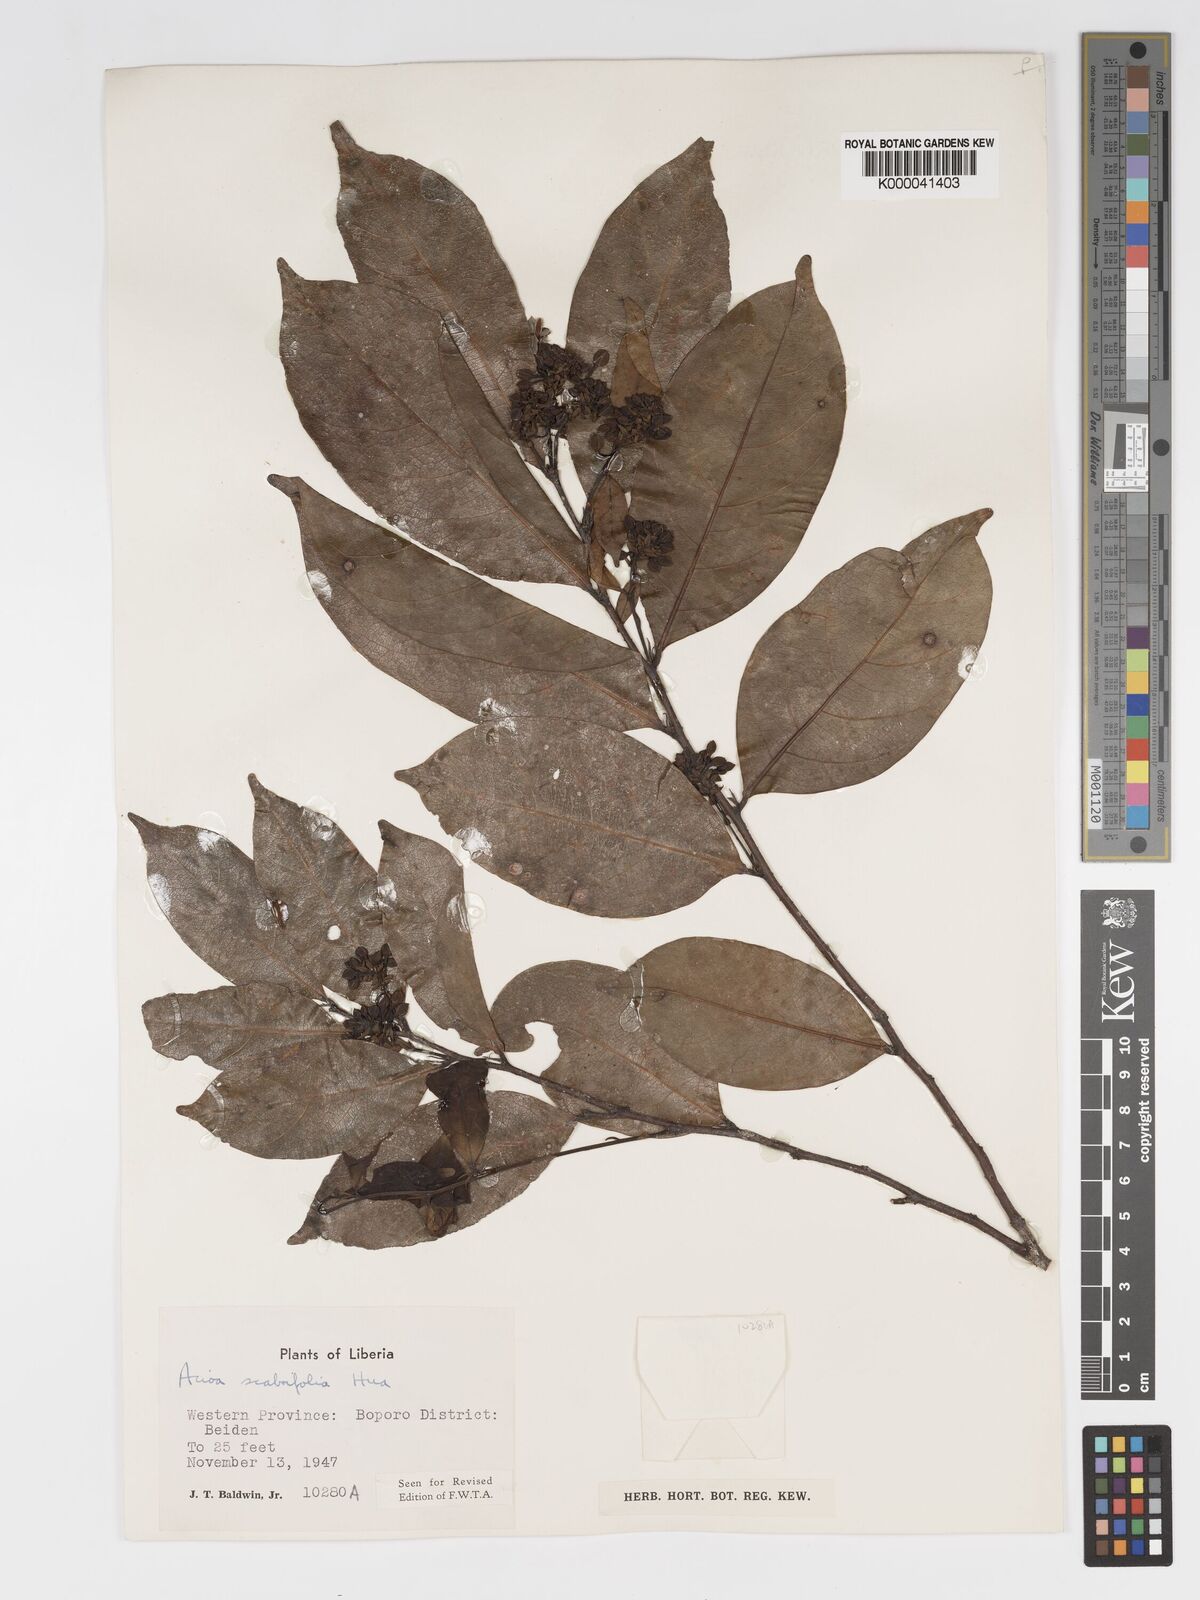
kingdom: Plantae
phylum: Tracheophyta
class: Magnoliopsida
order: Malpighiales
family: Chrysobalanaceae
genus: Dactyladenia
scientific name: Dactyladenia scabrifolia
